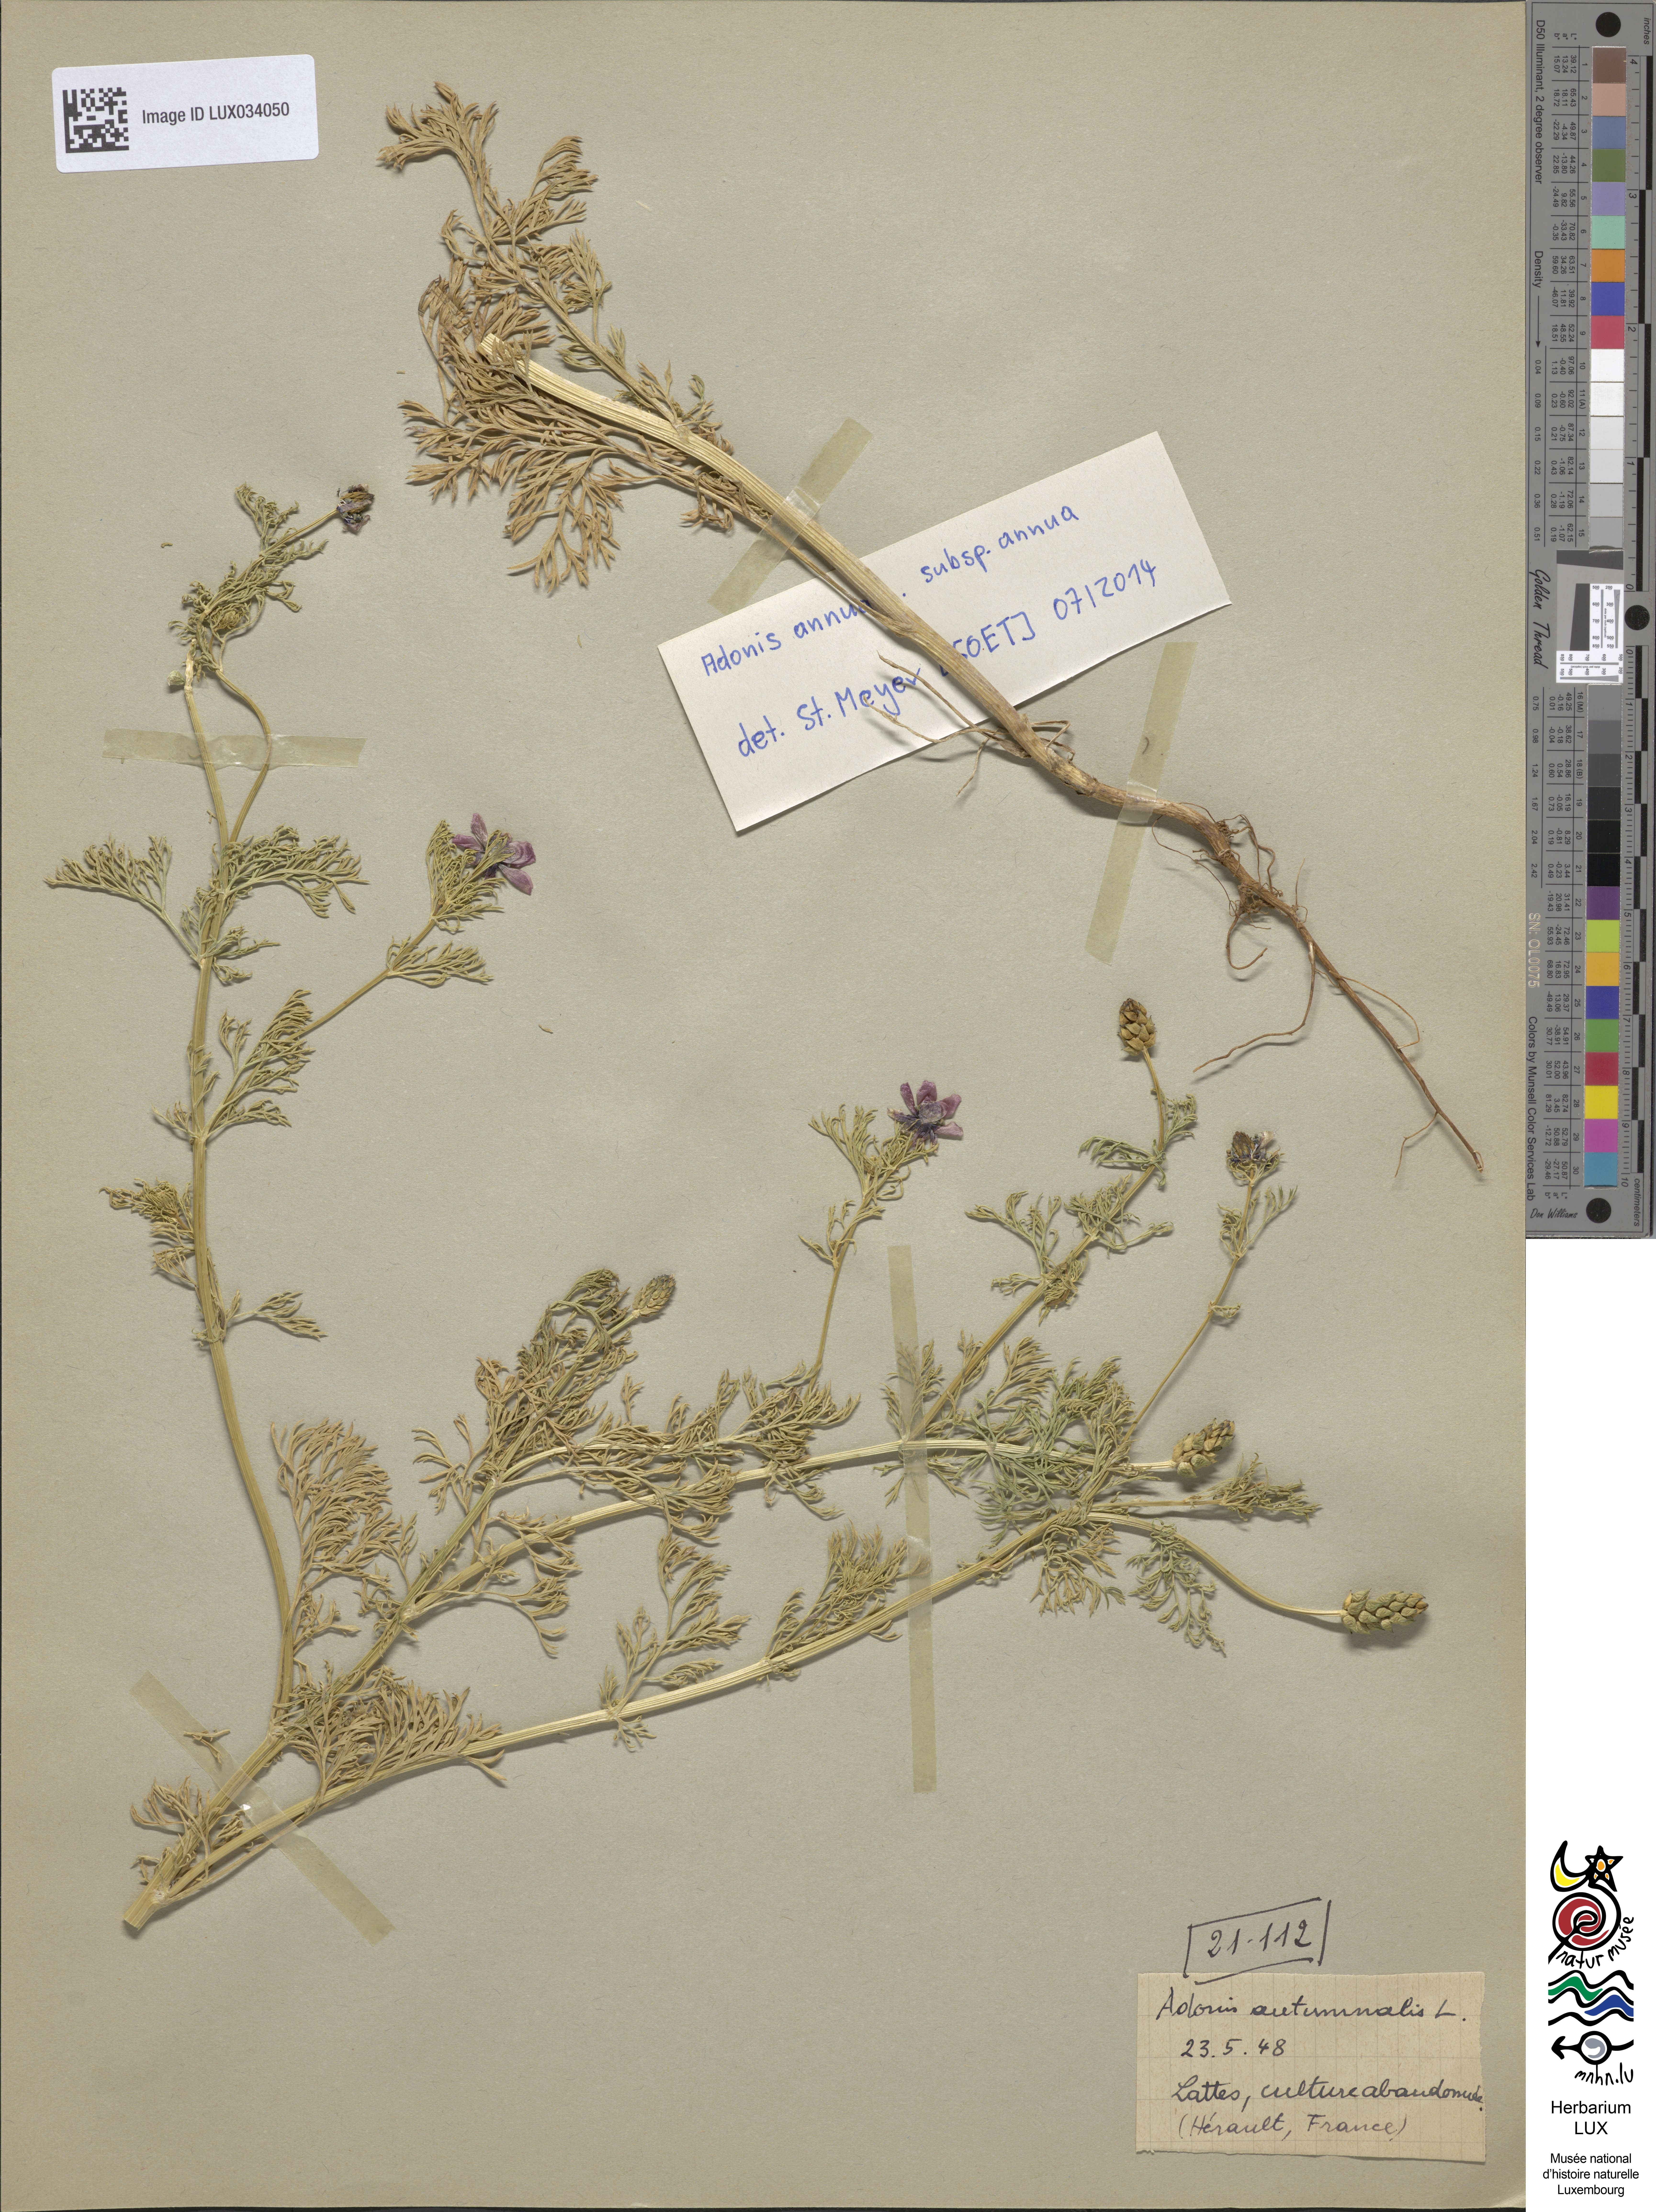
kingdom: Plantae
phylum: Tracheophyta
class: Magnoliopsida
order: Ranunculales
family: Ranunculaceae
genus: Adonis
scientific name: Adonis annua
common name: Pheasant's-eye
